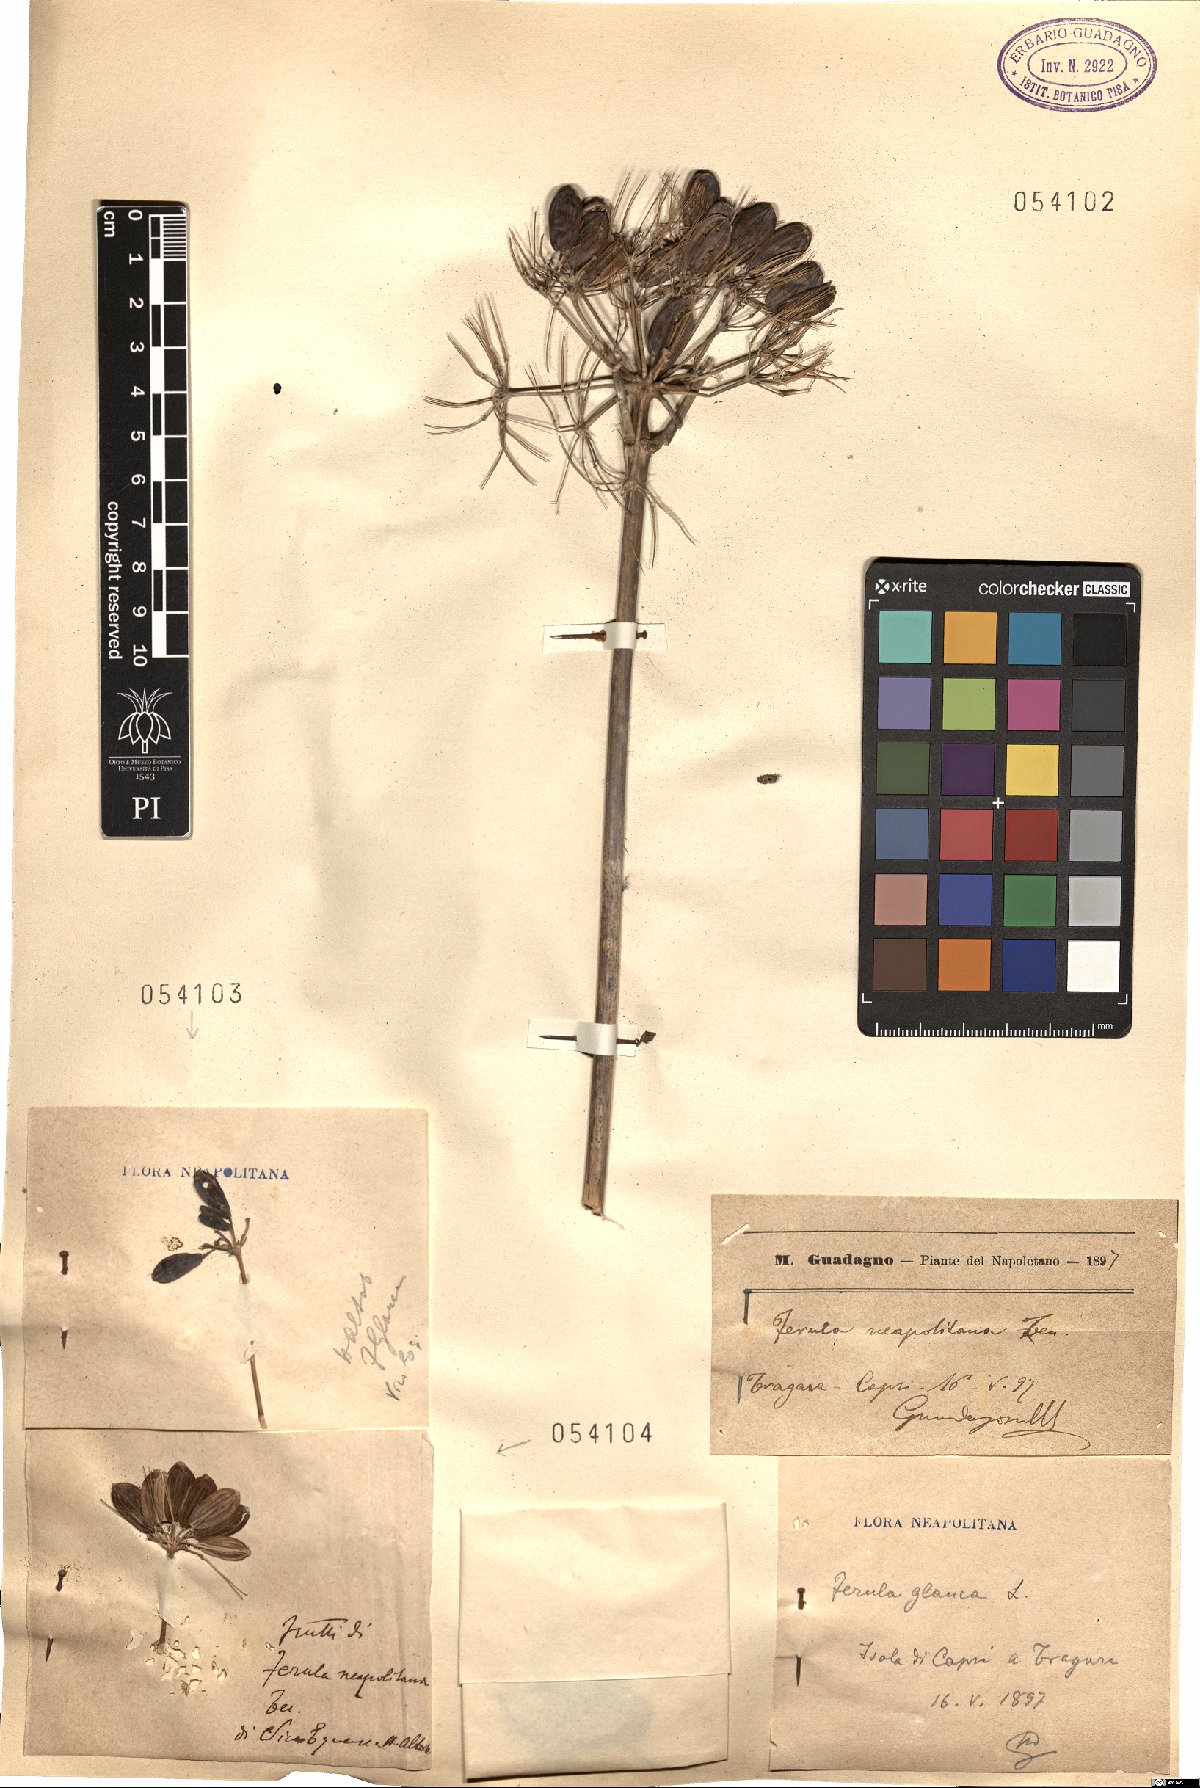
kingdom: Plantae
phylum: Tracheophyta
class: Magnoliopsida
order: Apiales
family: Apiaceae
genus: Ferula
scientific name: Ferula glauca
